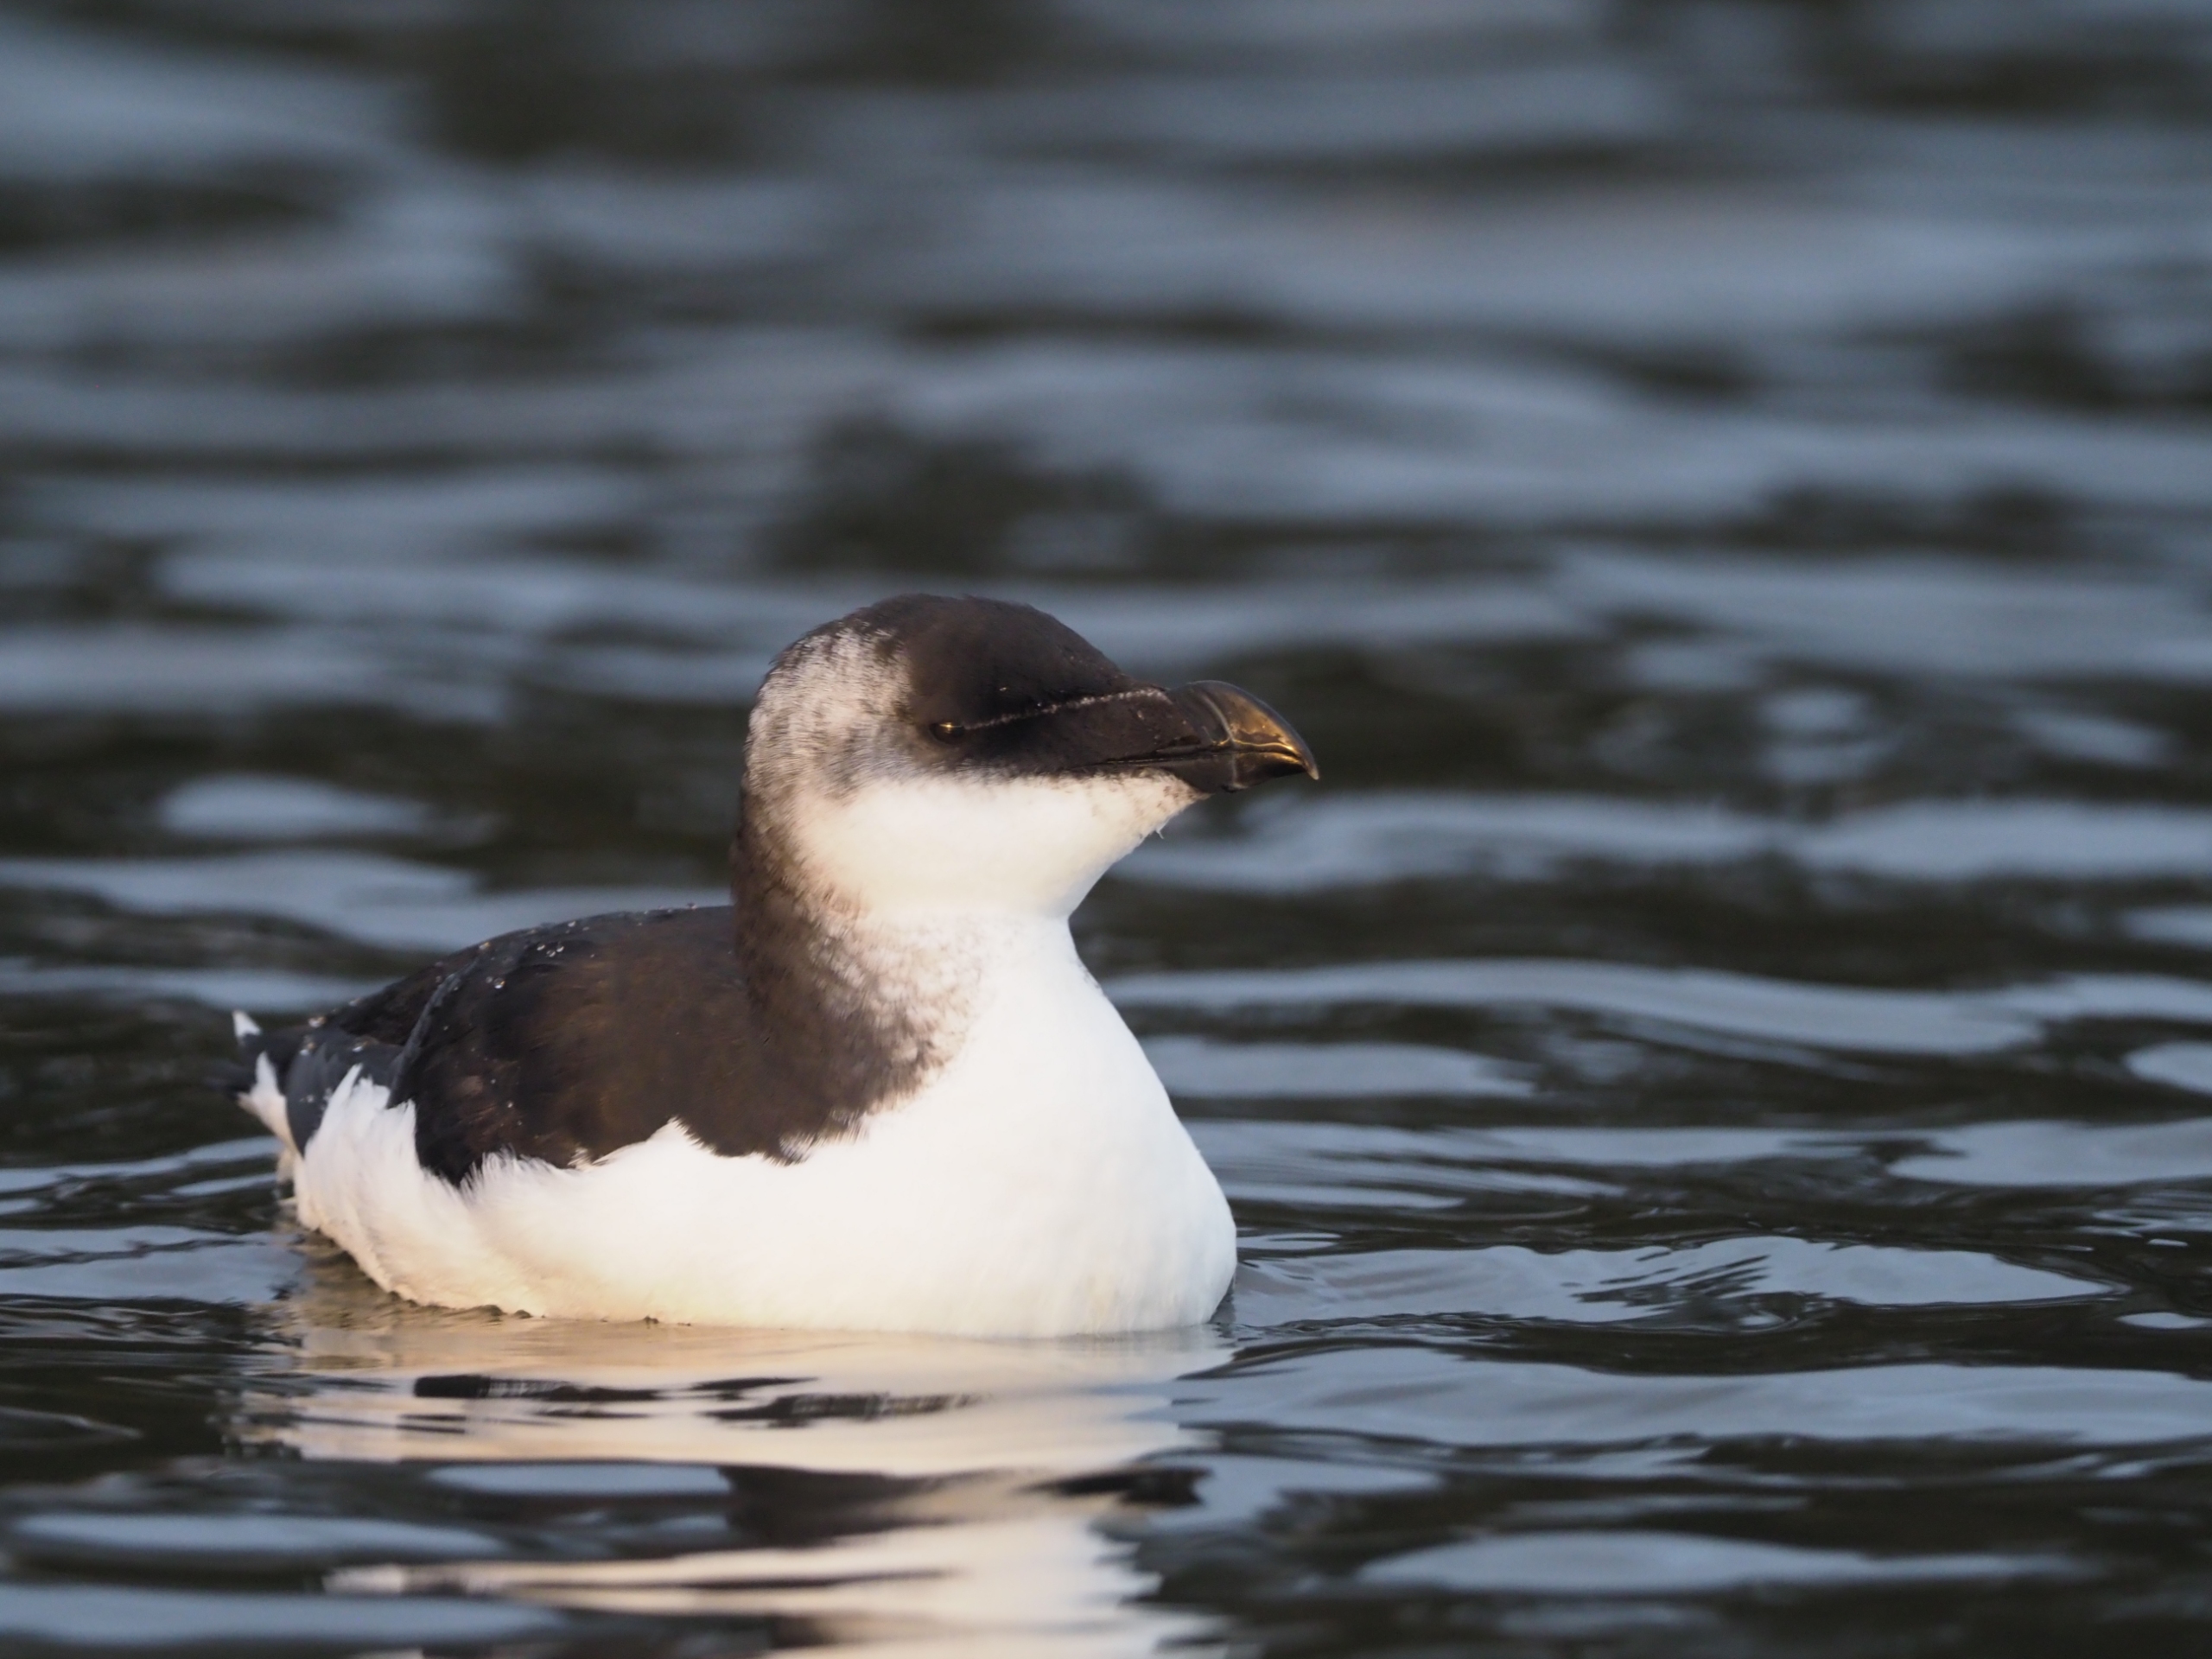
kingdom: Animalia
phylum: Chordata
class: Aves
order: Charadriiformes
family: Alcidae
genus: Alca
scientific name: Alca torda
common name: Alk
